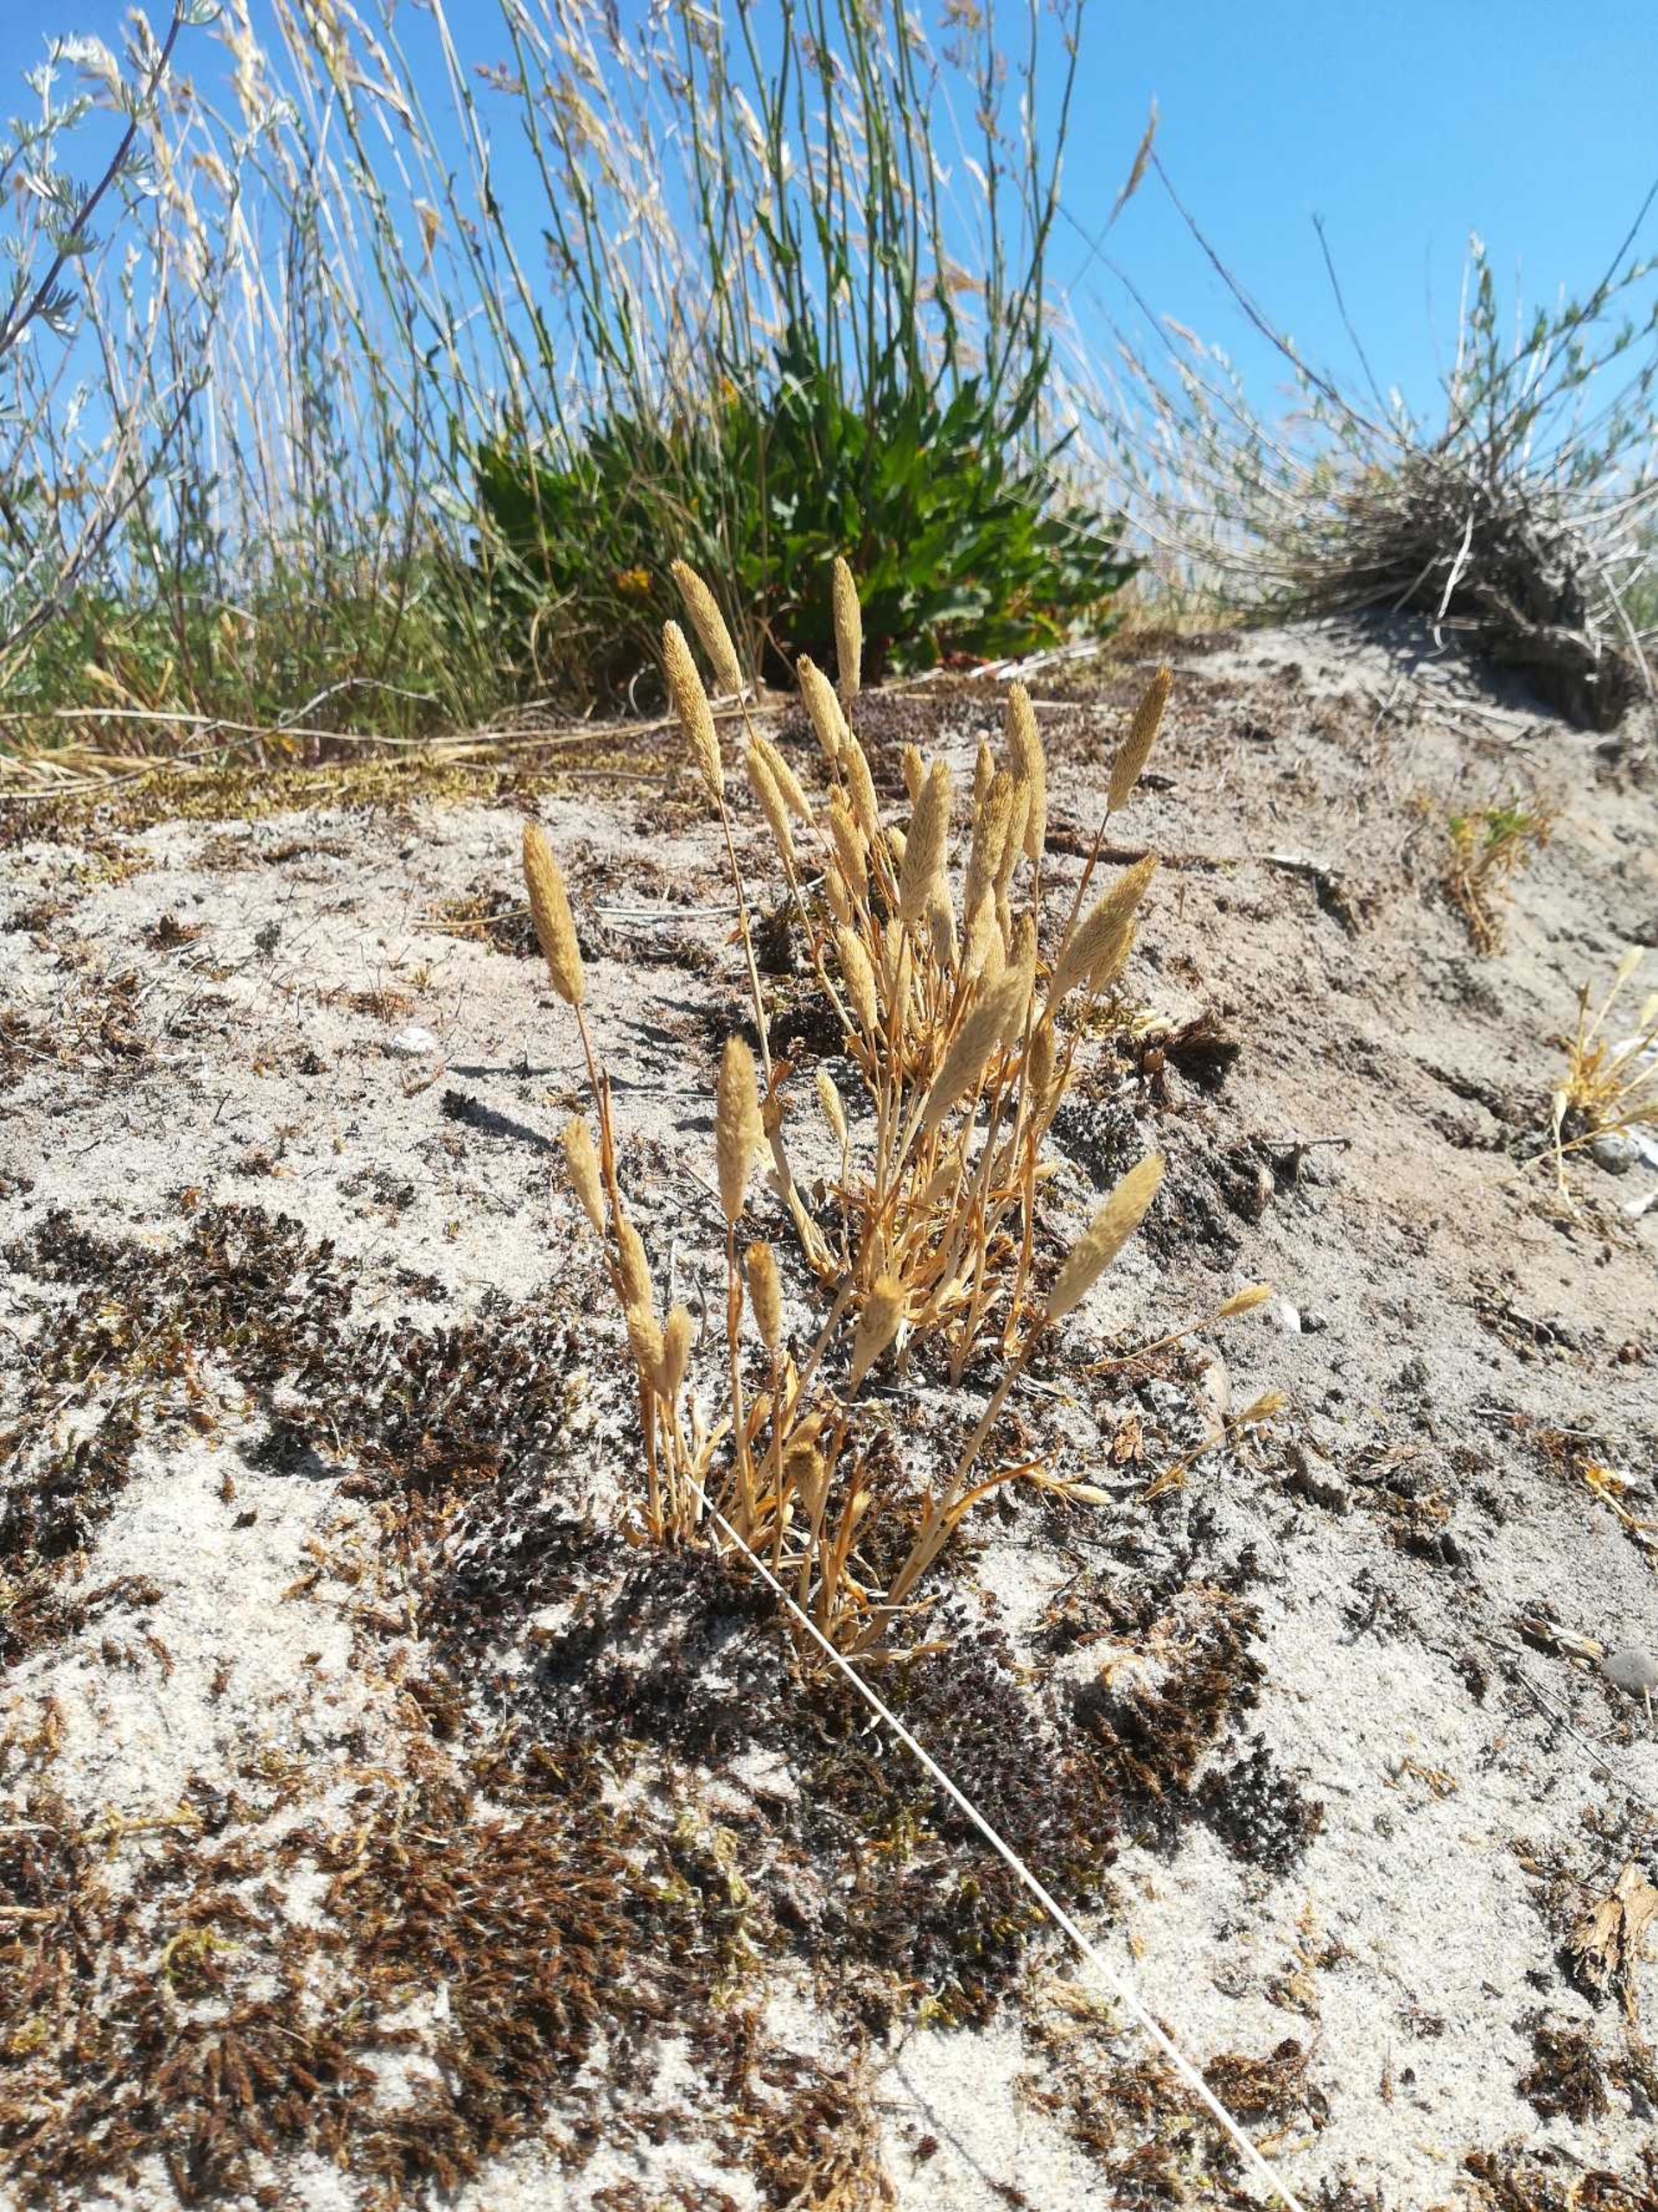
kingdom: Plantae
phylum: Tracheophyta
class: Liliopsida
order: Poales
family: Poaceae
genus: Phleum
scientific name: Phleum arenarium
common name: Sand-rottehale
